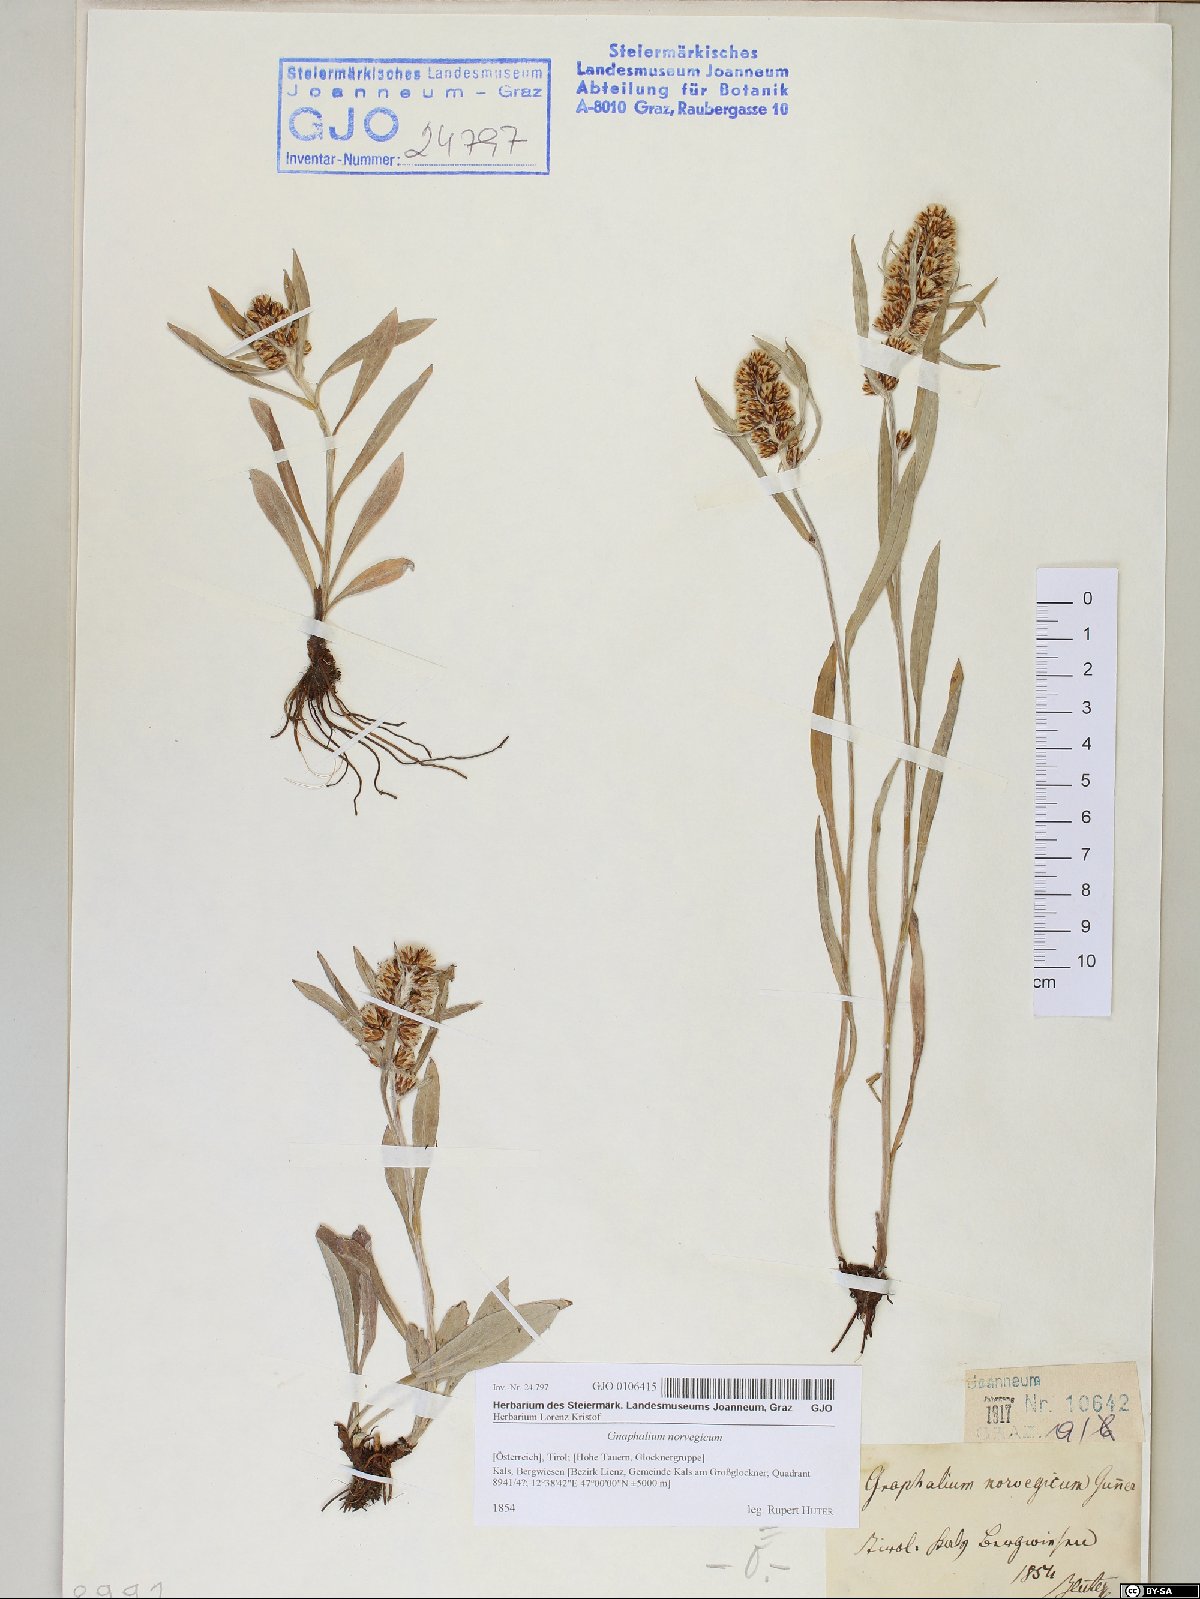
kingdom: Plantae
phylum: Tracheophyta
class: Magnoliopsida
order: Asterales
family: Asteraceae
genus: Omalotheca
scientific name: Omalotheca norvegica
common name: Norwegian arctic-cudweed
